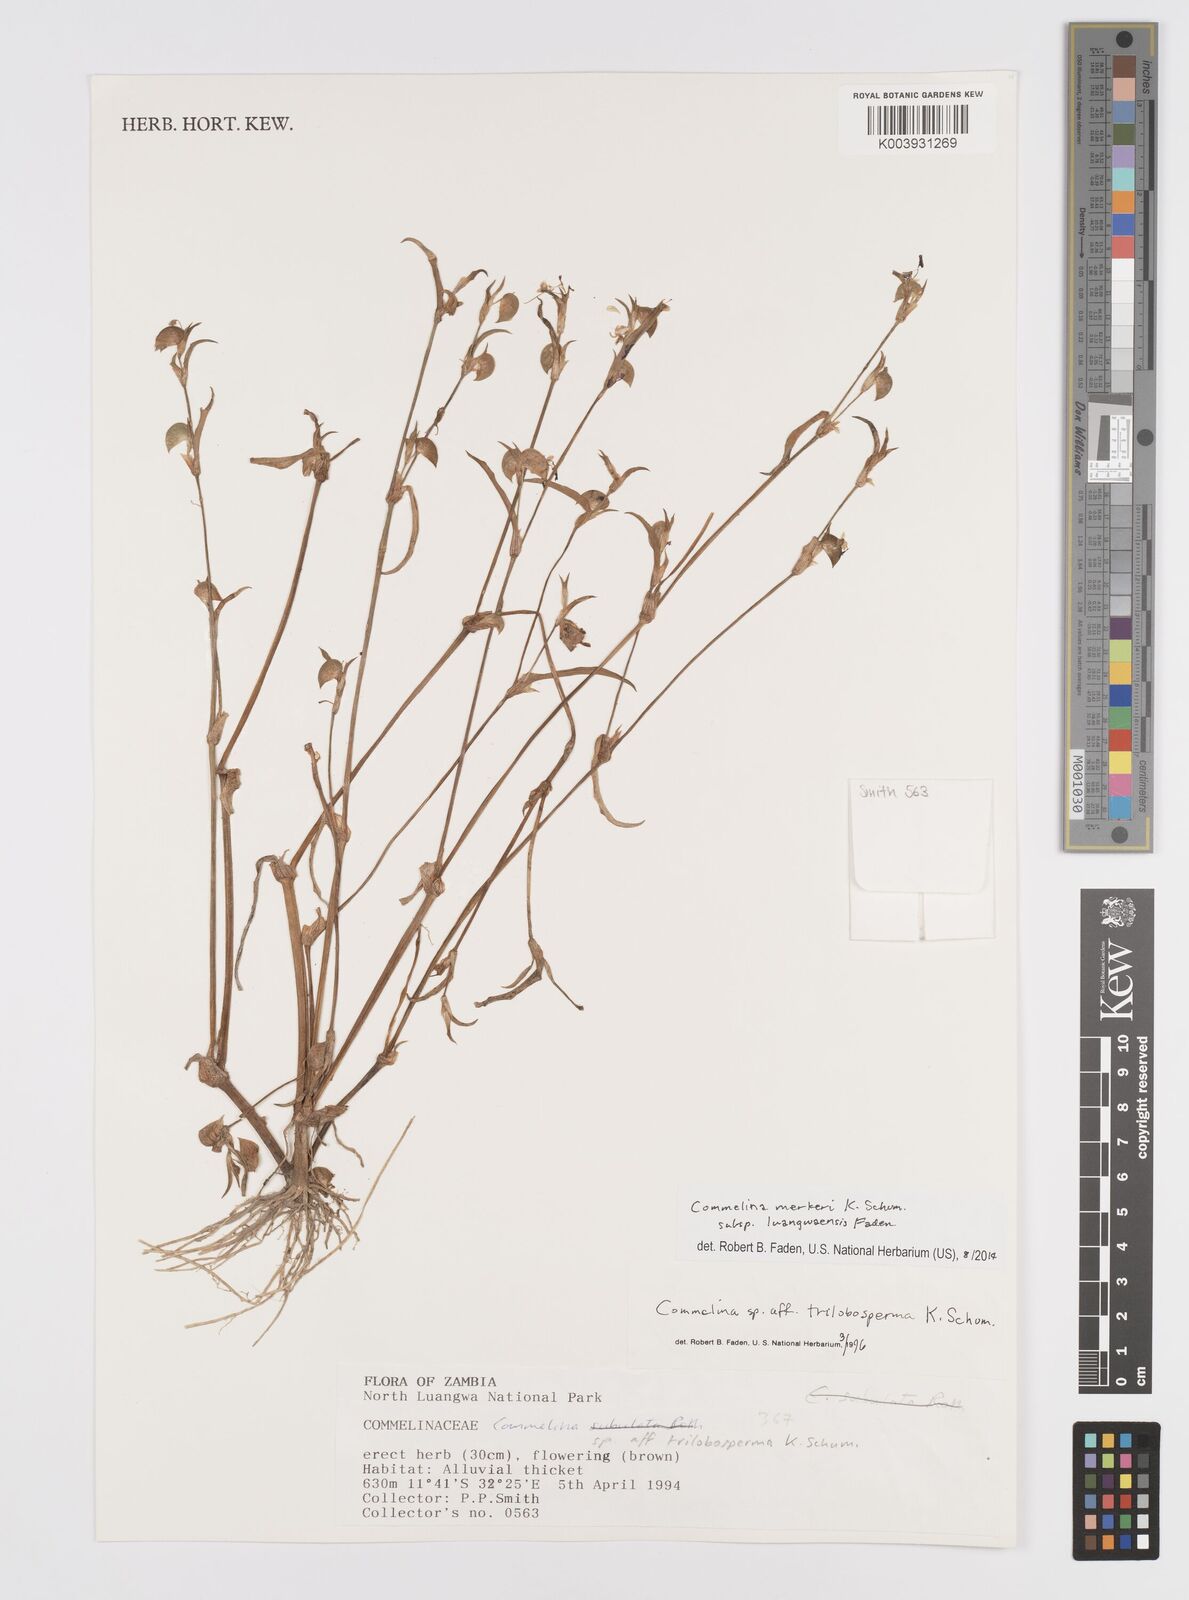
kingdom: Plantae
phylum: Tracheophyta
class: Liliopsida
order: Commelinales
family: Commelinaceae
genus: Commelina
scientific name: Commelina merkeri
